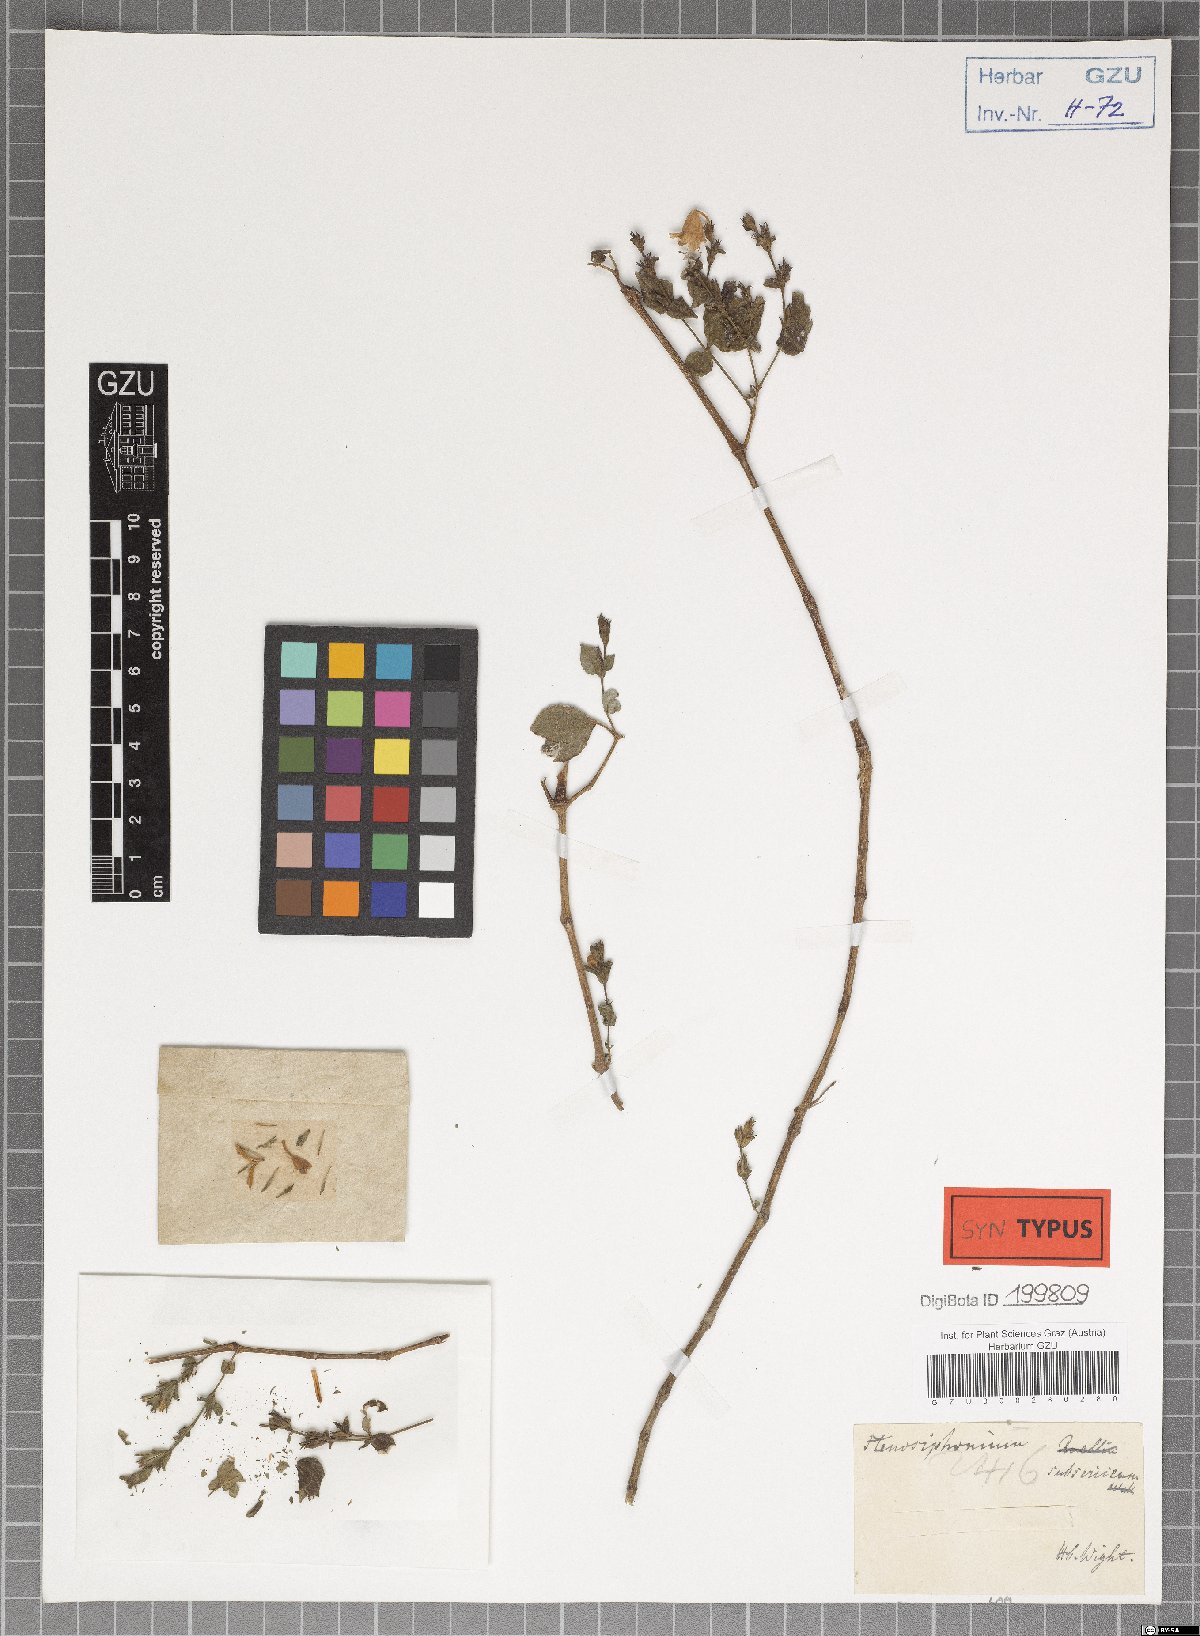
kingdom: Plantae
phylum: Tracheophyta
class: Magnoliopsida
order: Lamiales
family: Acanthaceae
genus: Strobilanthes
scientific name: Strobilanthes cordifolia
